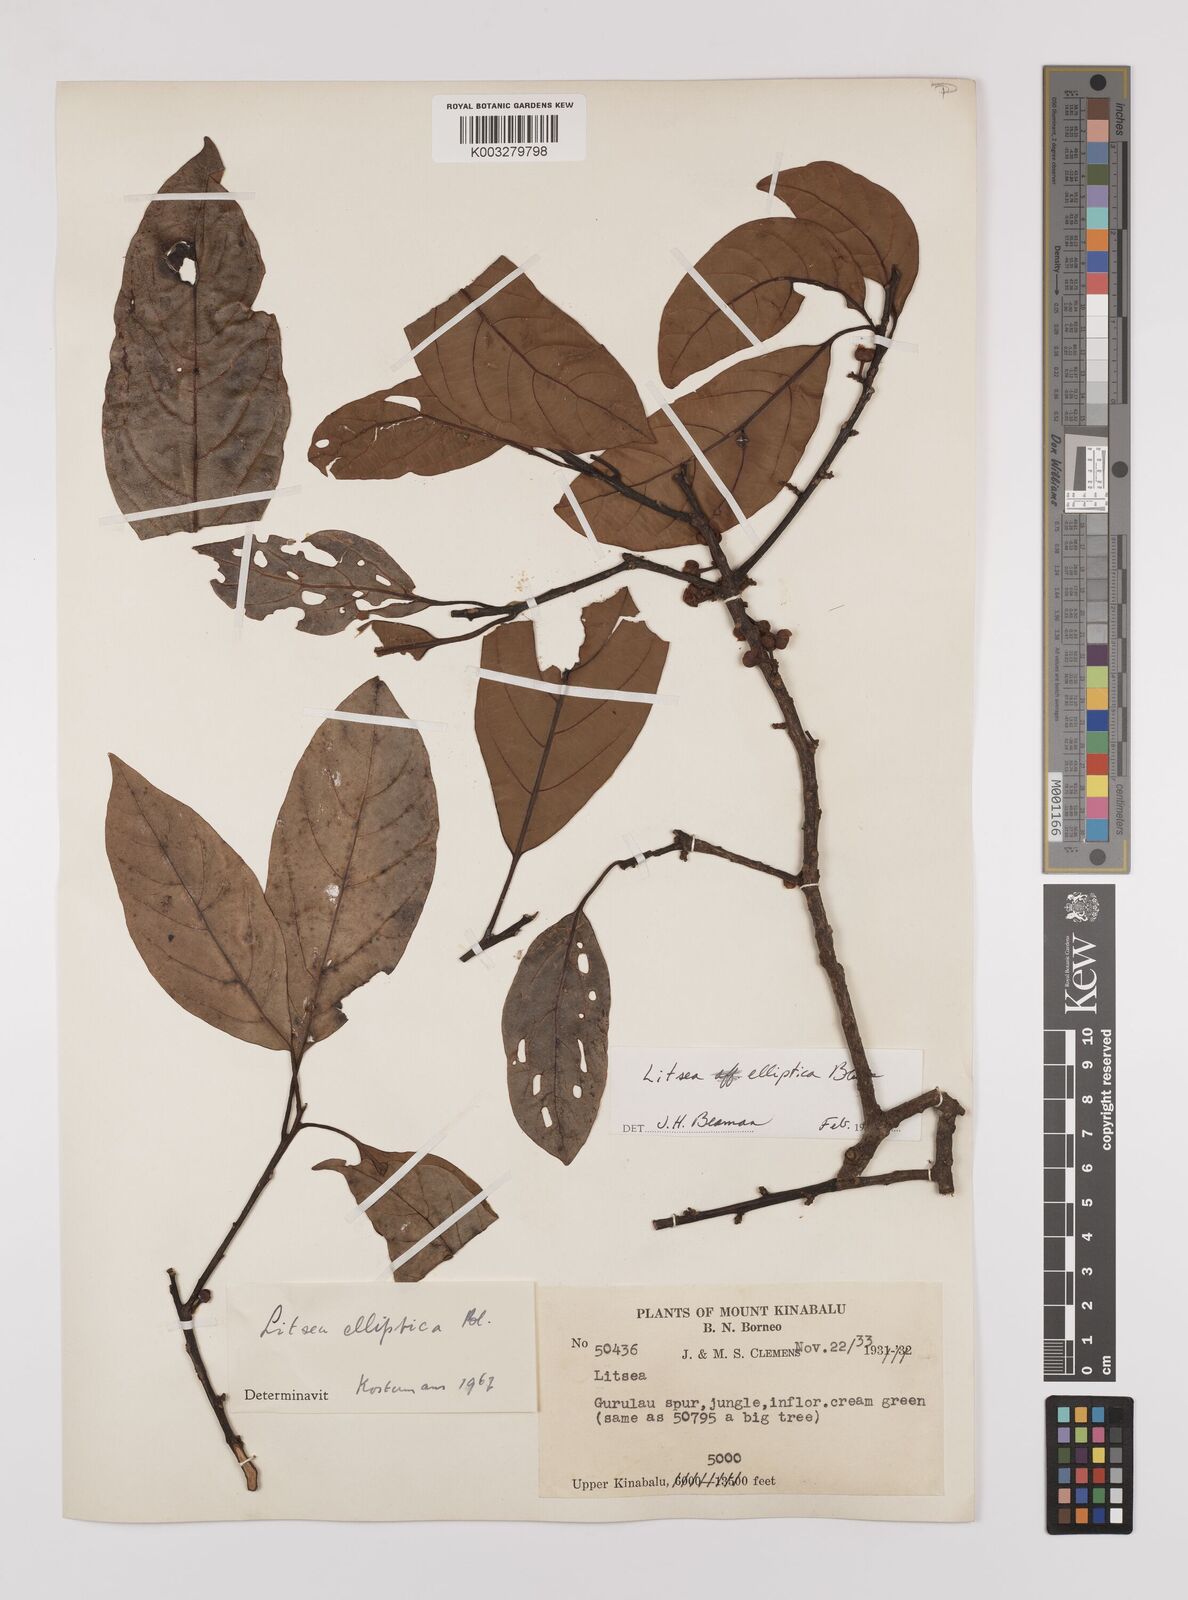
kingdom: Plantae
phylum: Tracheophyta
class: Magnoliopsida
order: Laurales
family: Lauraceae
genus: Litsea
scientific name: Litsea elliptica
